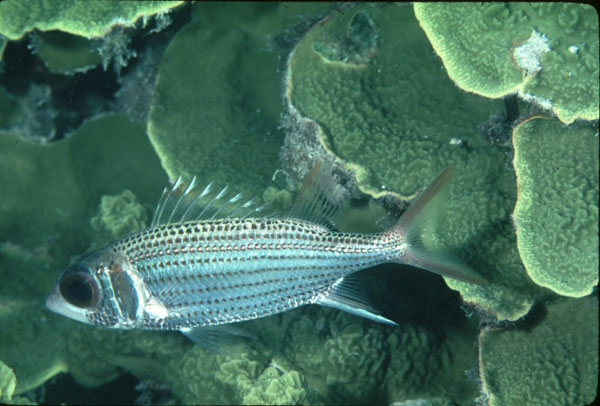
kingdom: Animalia
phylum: Chordata
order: Beryciformes
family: Holocentridae
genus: Neoniphon
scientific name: Neoniphon argenteus
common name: Clearfin squirrelfish
